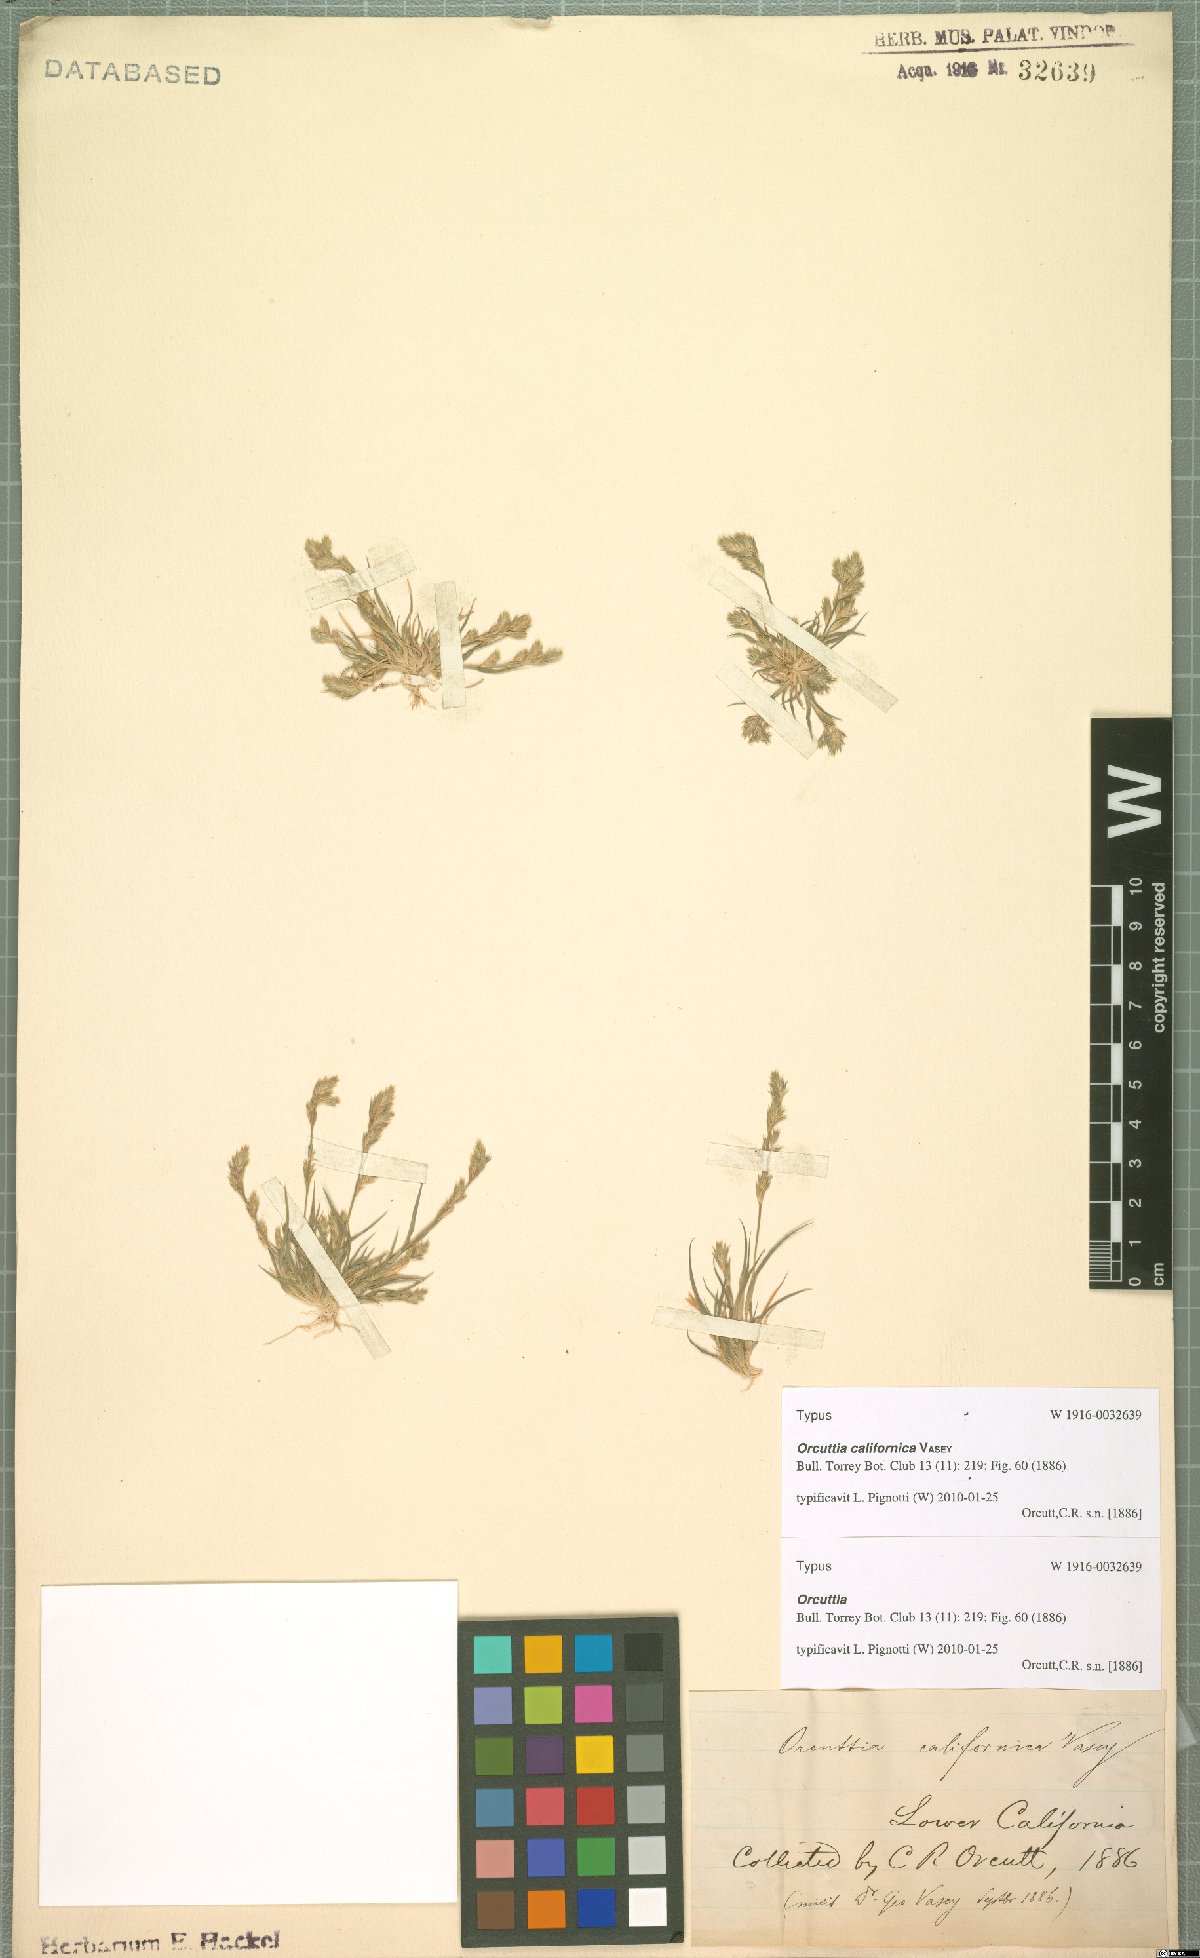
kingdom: Plantae
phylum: Tracheophyta
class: Liliopsida
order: Poales
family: Poaceae
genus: Orcuttia
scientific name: Orcuttia californica
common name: California orcutt grass
